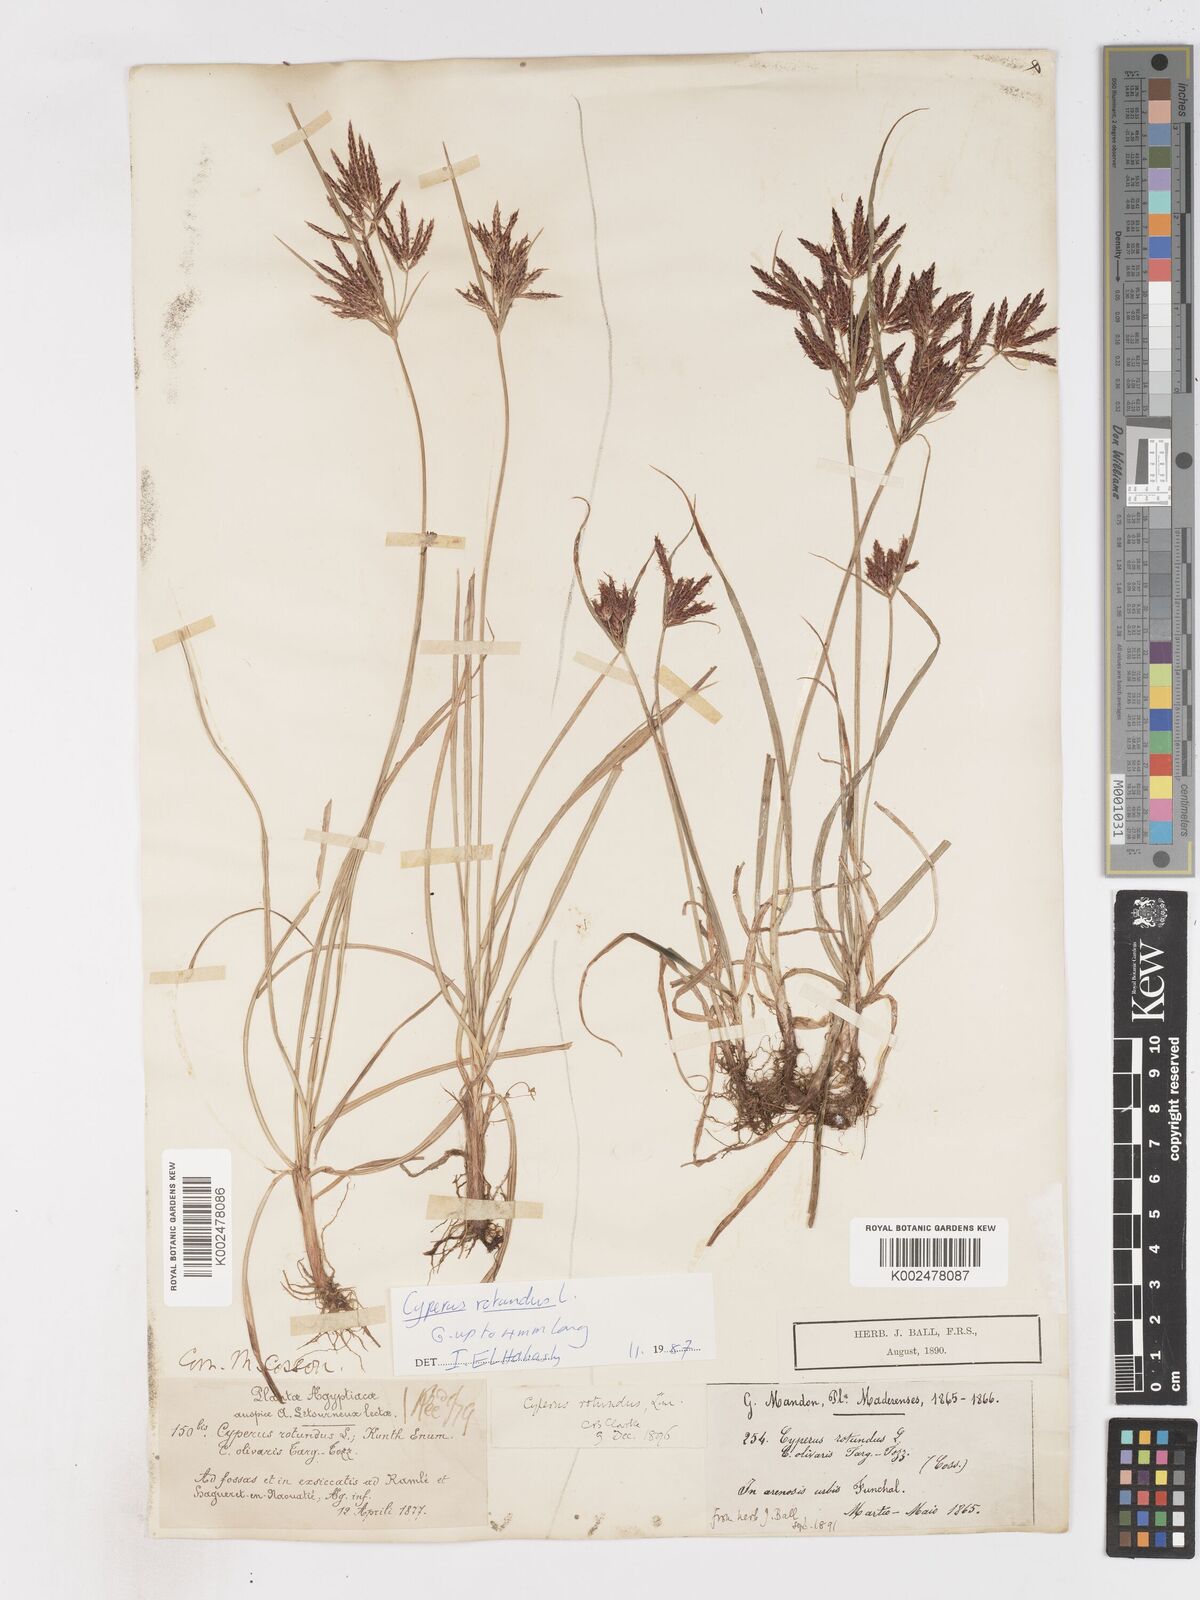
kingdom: Plantae
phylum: Tracheophyta
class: Liliopsida
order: Poales
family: Cyperaceae
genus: Cyperus
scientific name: Cyperus rotundus
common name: Nutgrass
